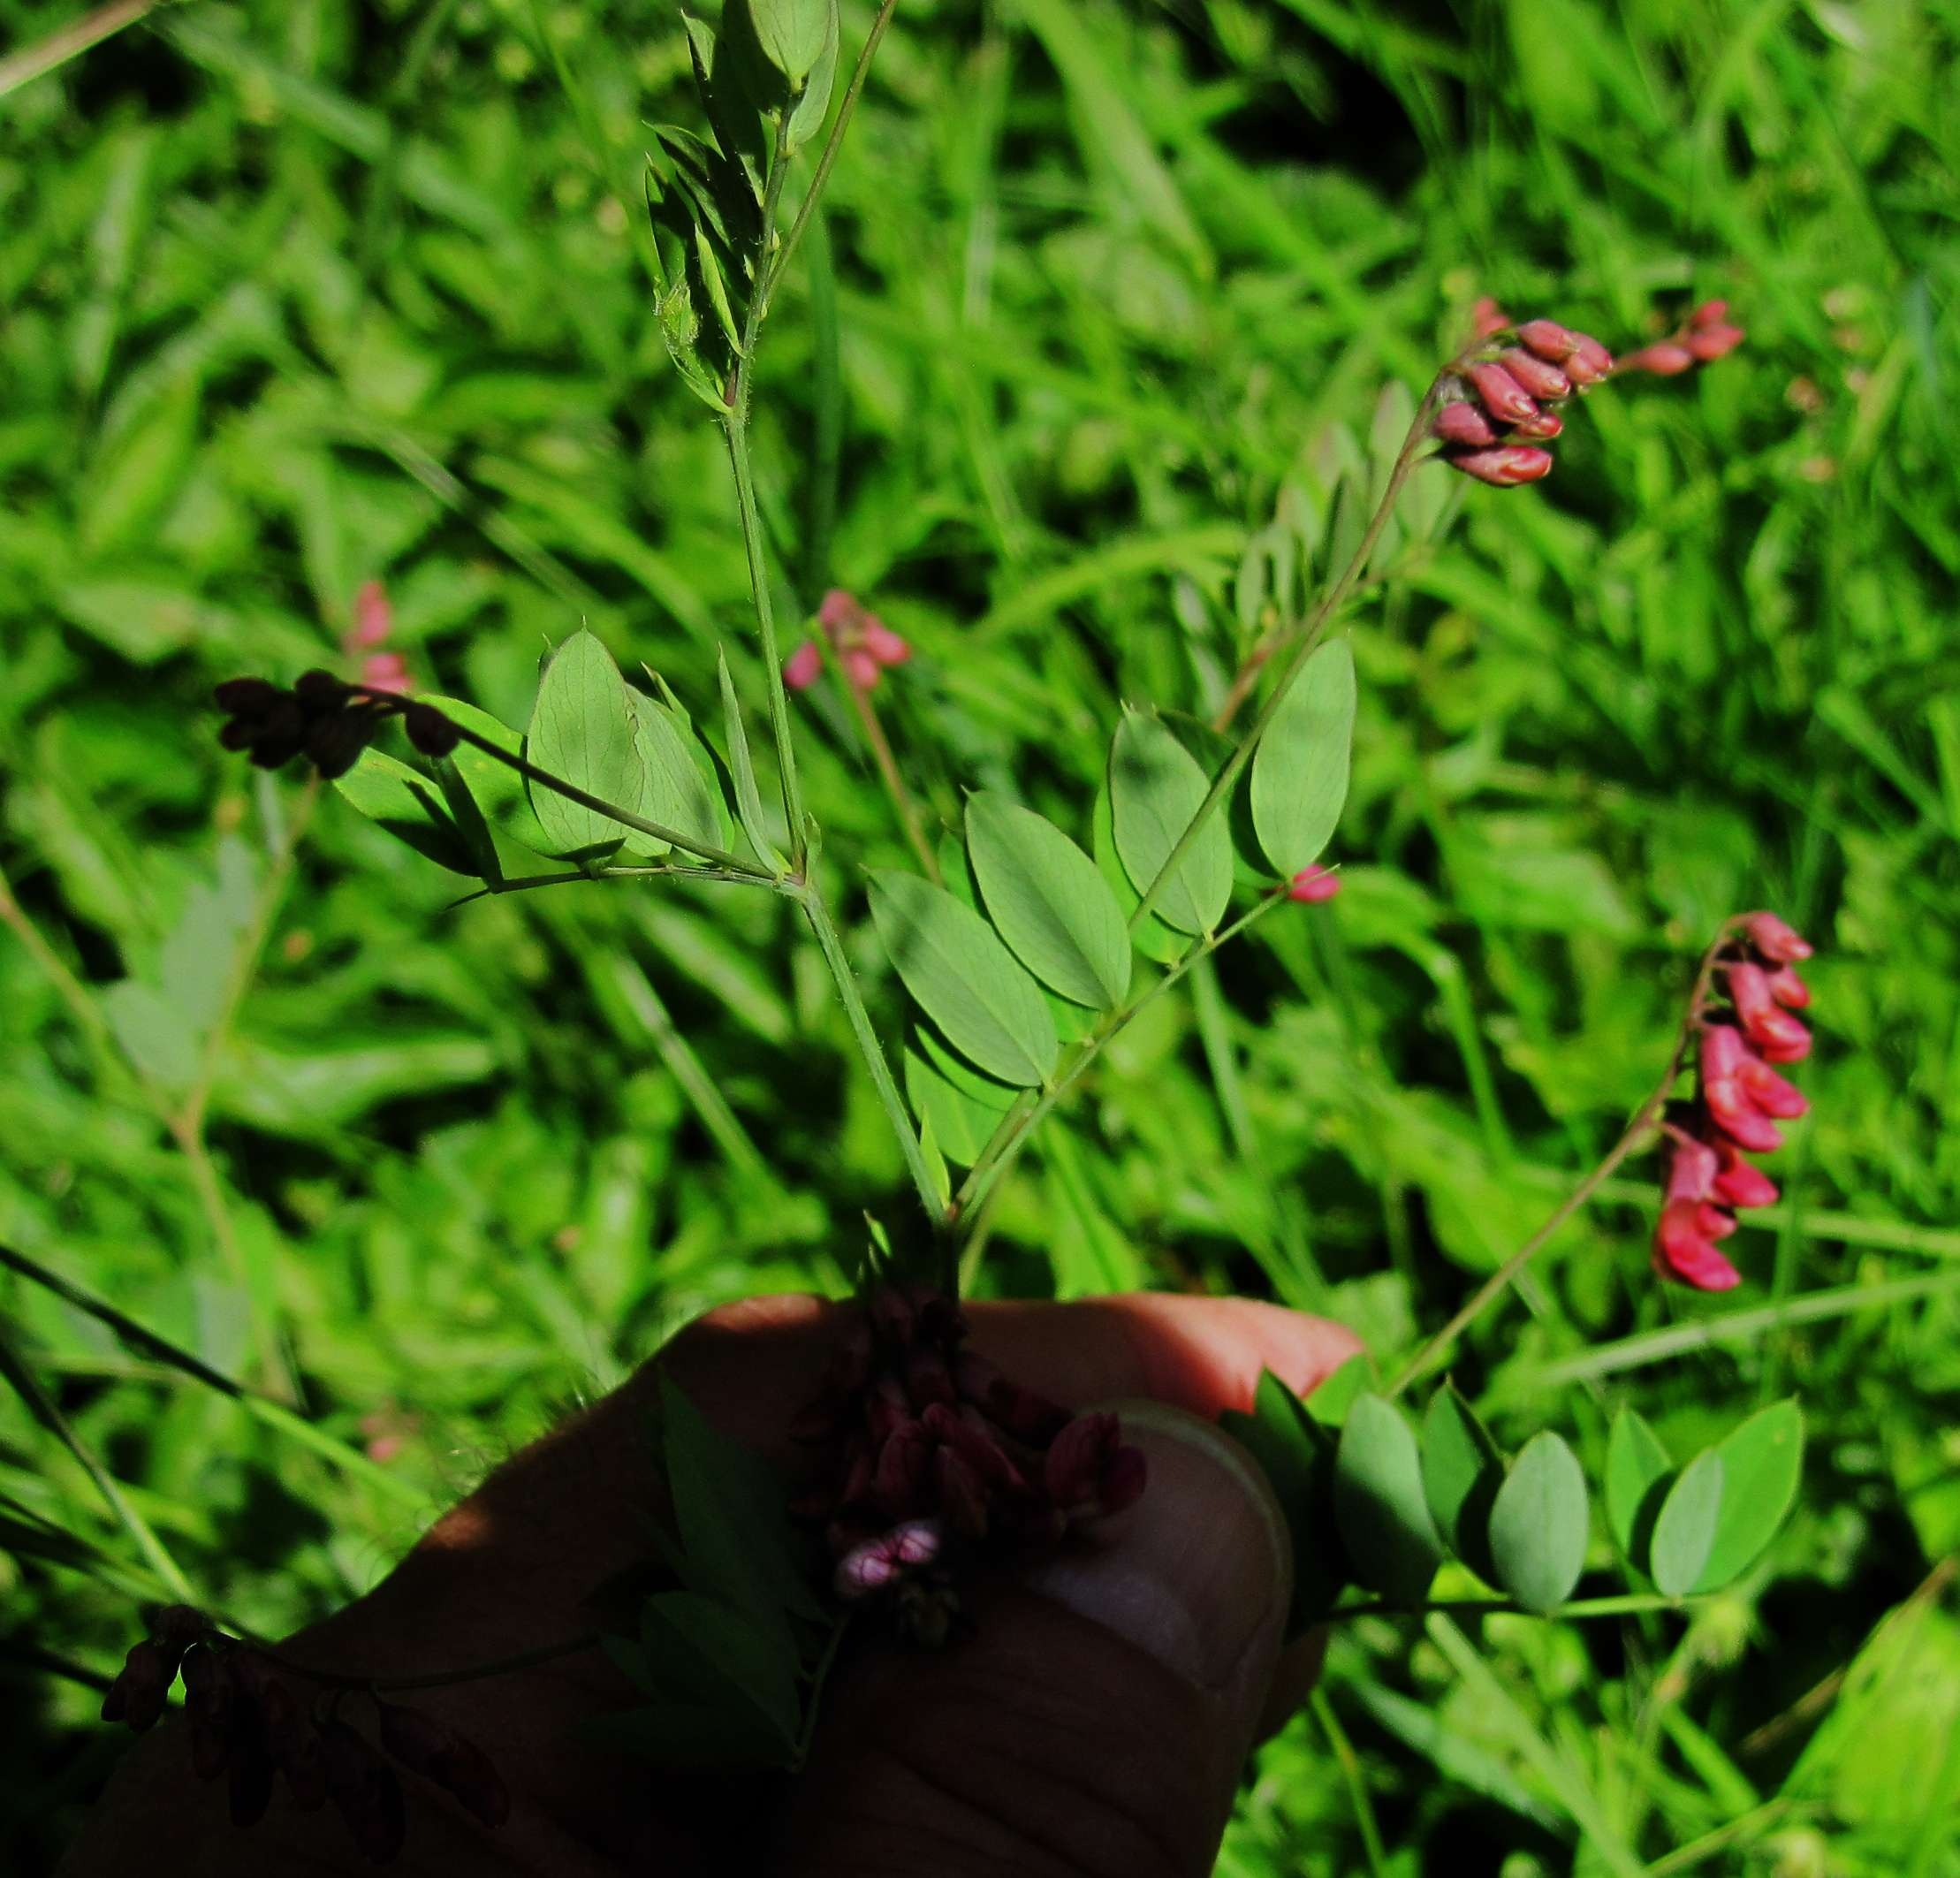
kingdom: Plantae
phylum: Tracheophyta
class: Magnoliopsida
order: Fabales
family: Fabaceae
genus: Lathyrus
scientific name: Lathyrus niger
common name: Sort fladbælg
